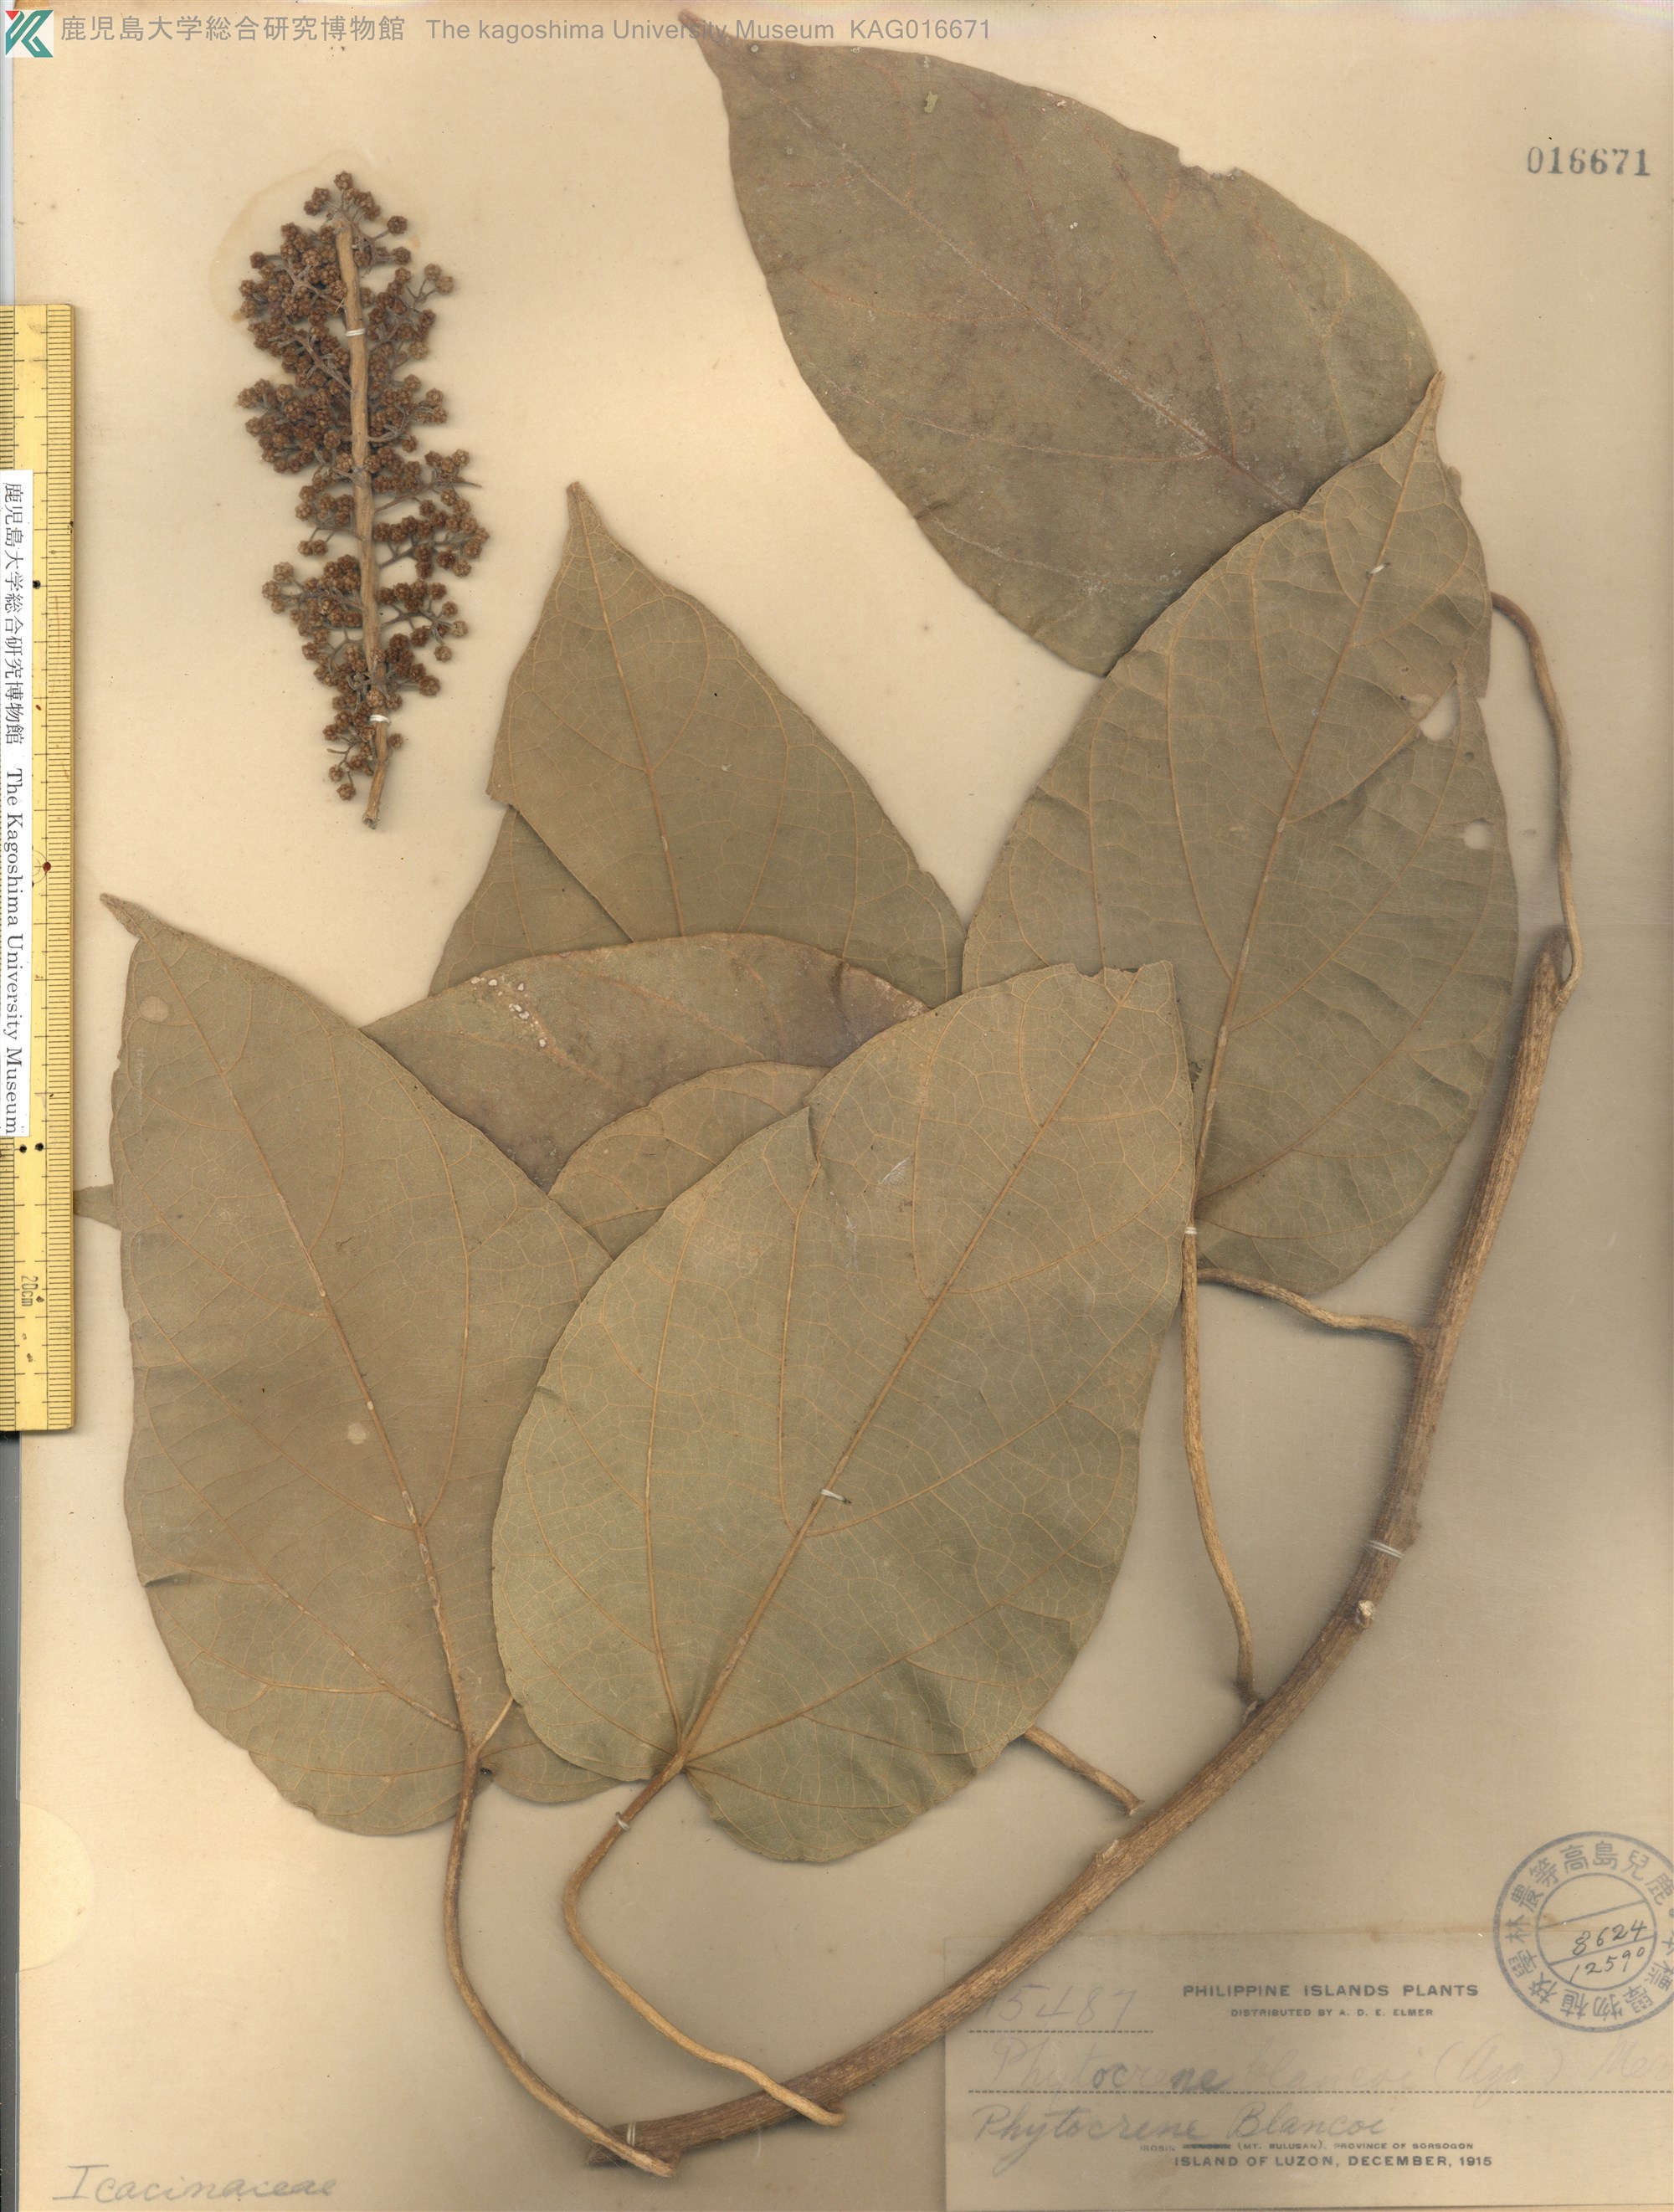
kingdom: Plantae
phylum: Tracheophyta
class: Magnoliopsida
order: Icacinales
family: Icacinaceae
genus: Phytocrene
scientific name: Phytocrene macrophylla
